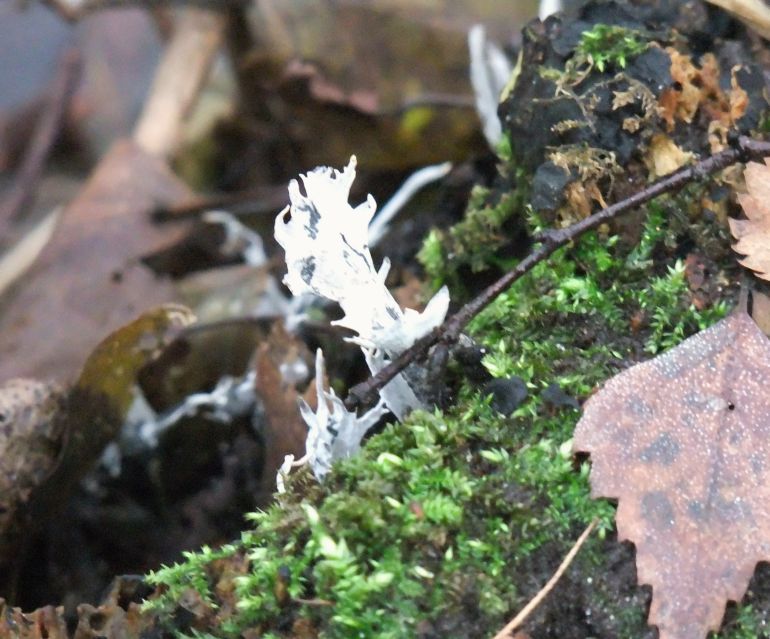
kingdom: Fungi
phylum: Ascomycota
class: Sordariomycetes
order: Xylariales
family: Xylariaceae
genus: Xylaria
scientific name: Xylaria hypoxylon
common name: grenet stødsvamp
